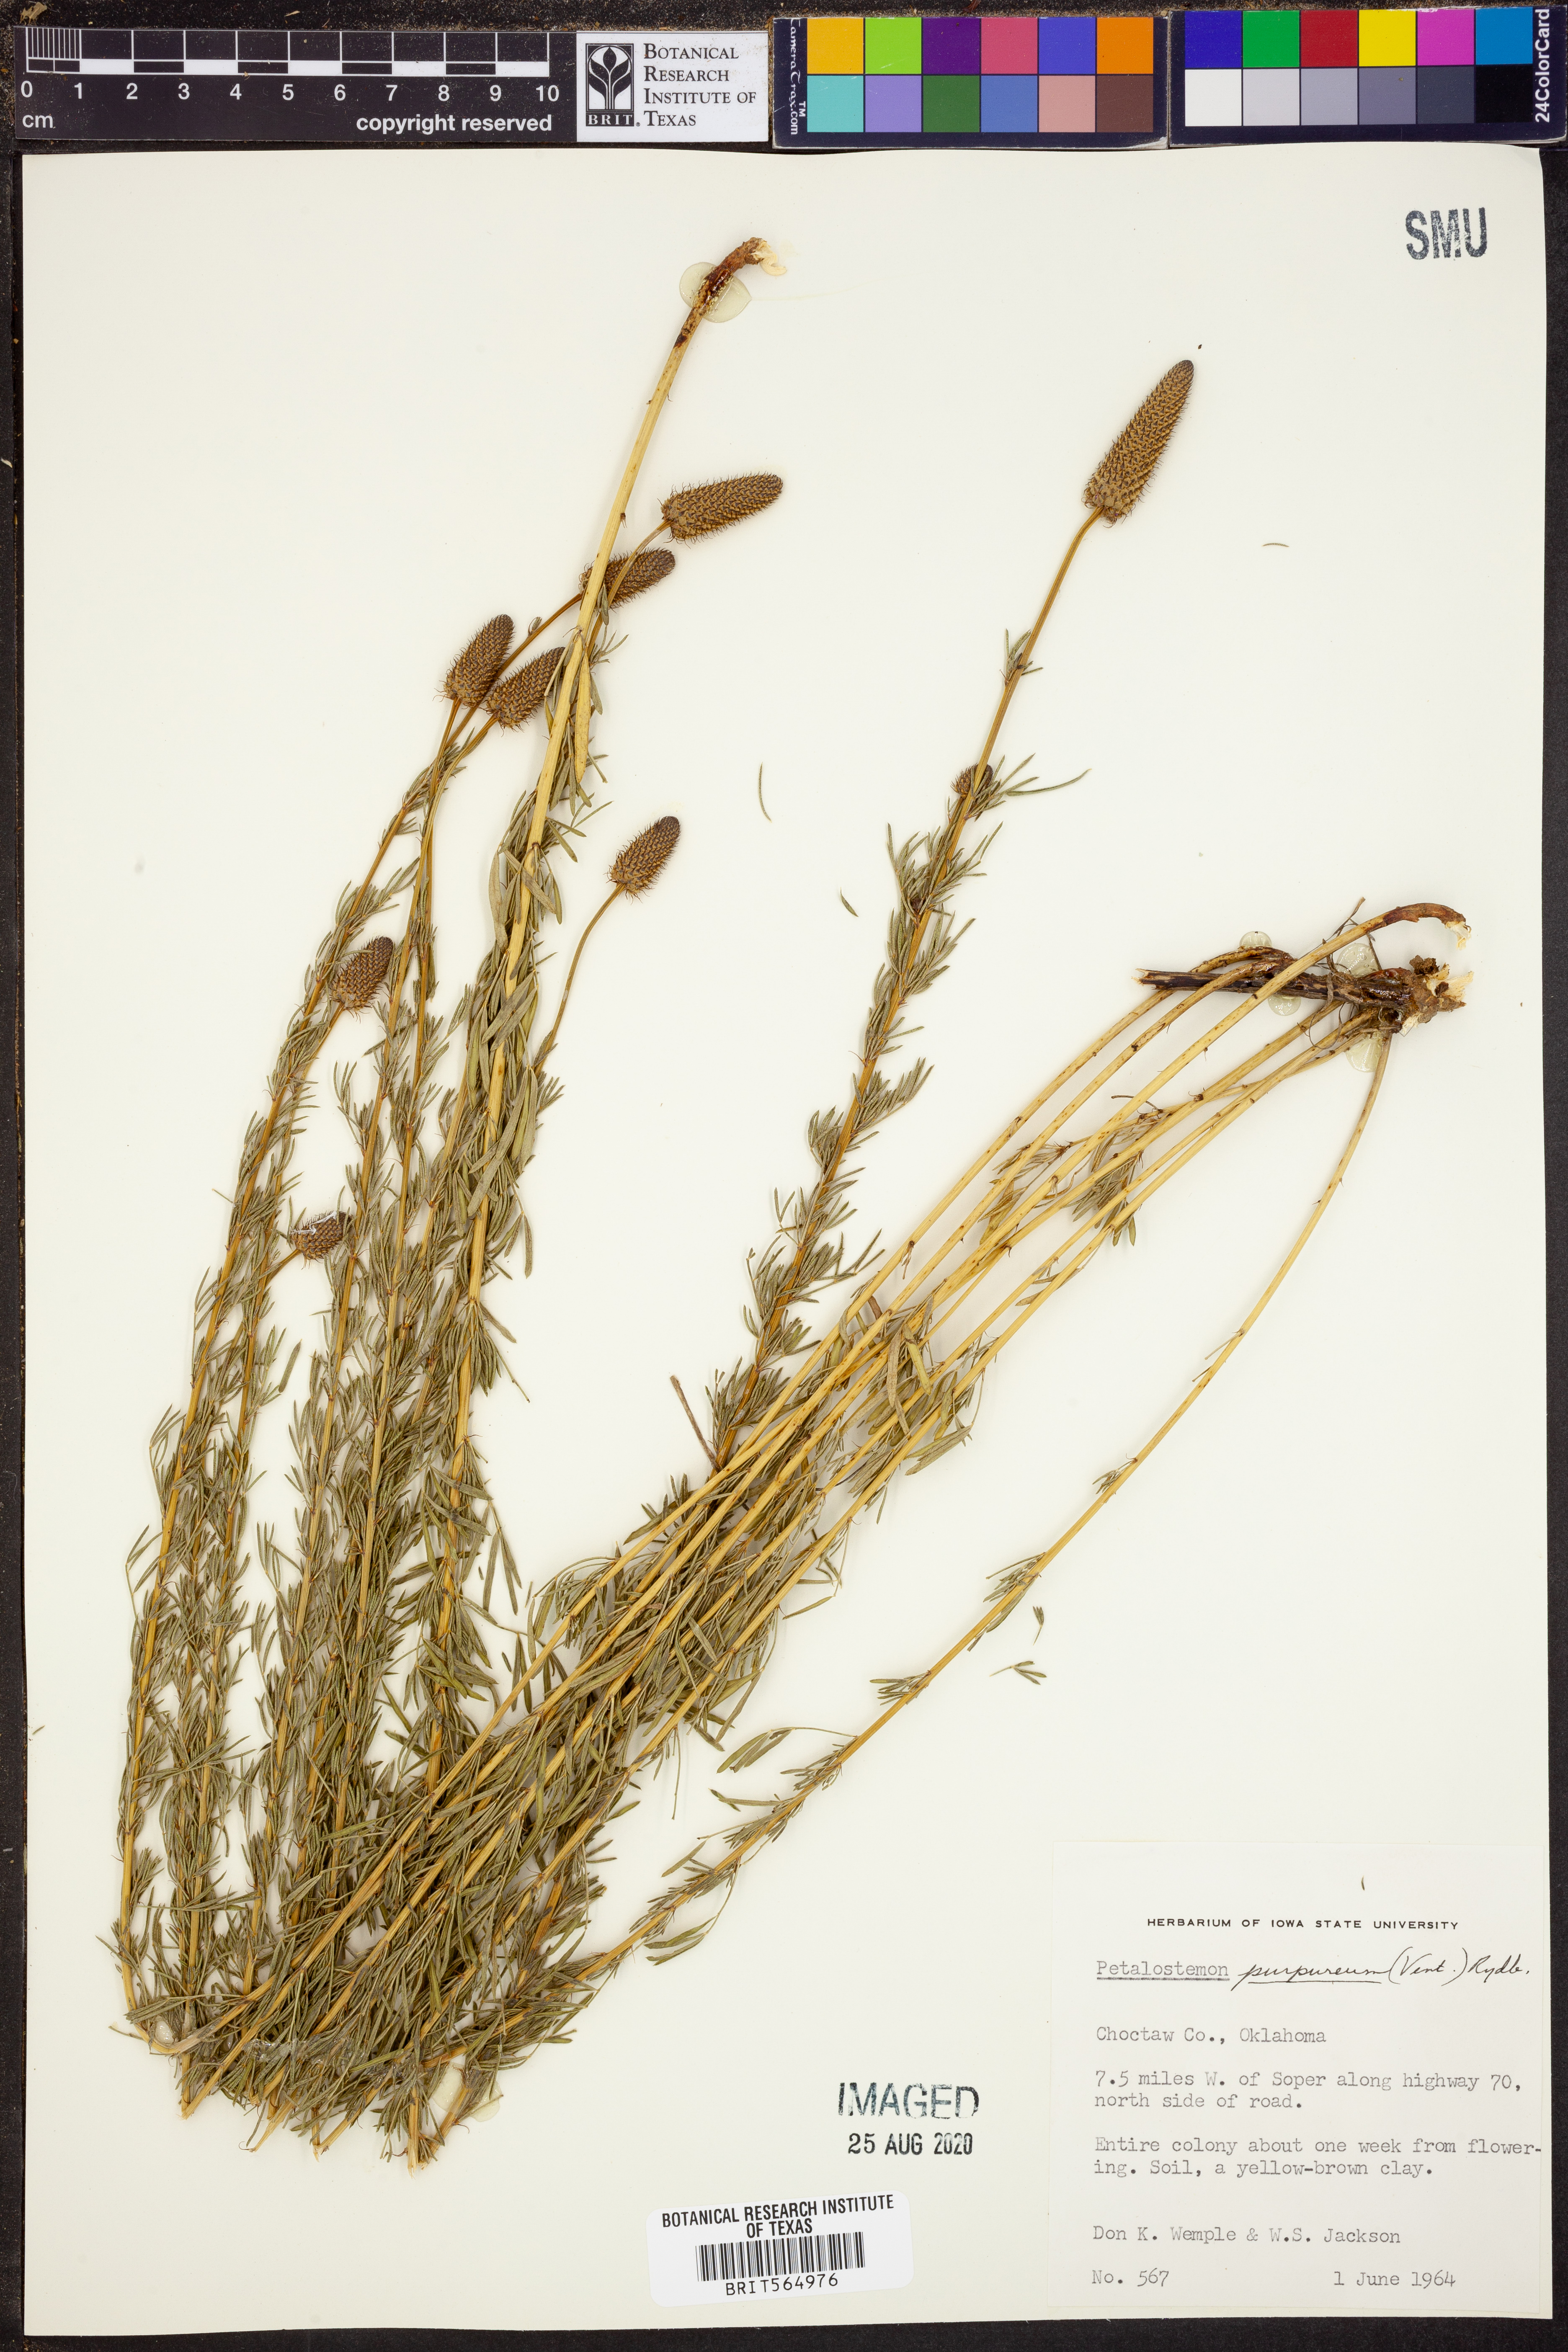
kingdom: Plantae
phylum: Tracheophyta
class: Magnoliopsida
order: Fabales
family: Fabaceae
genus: Dalea
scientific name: Dalea purpurea
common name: Purple prairie-clover
